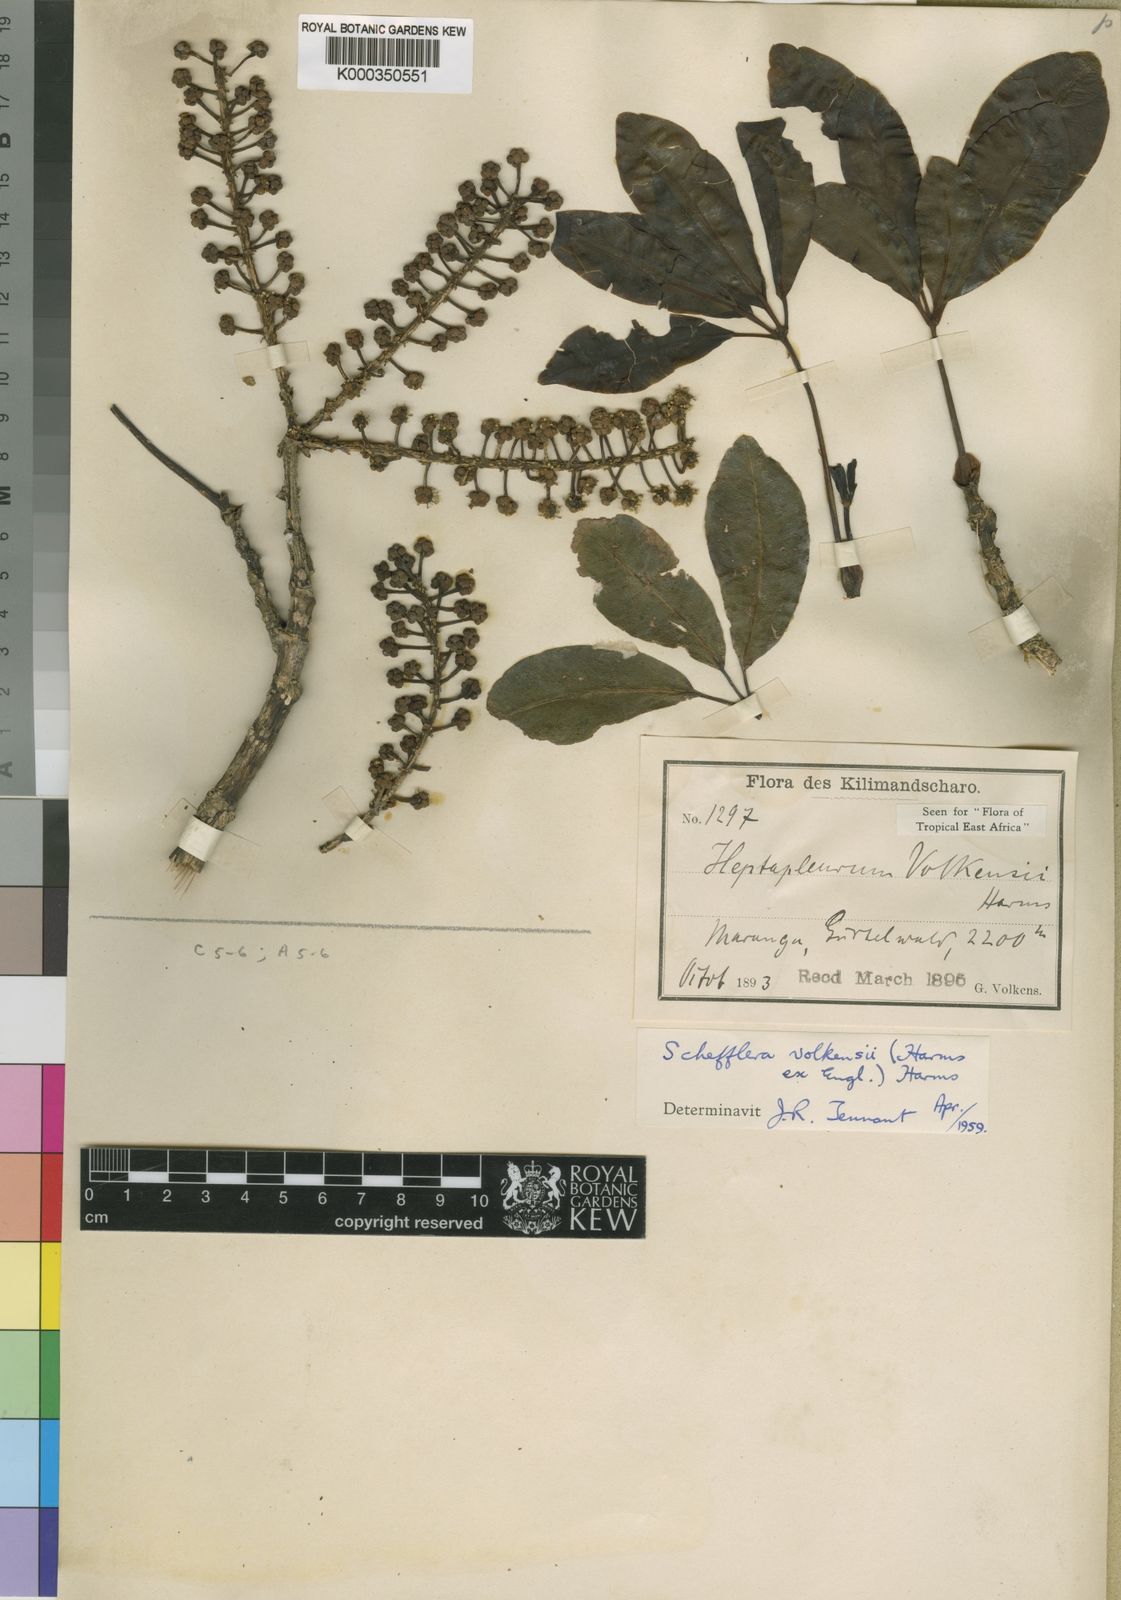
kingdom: Plantae
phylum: Tracheophyta
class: Magnoliopsida
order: Apiales
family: Araliaceae
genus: Astropanax
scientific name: Astropanax volkensii
